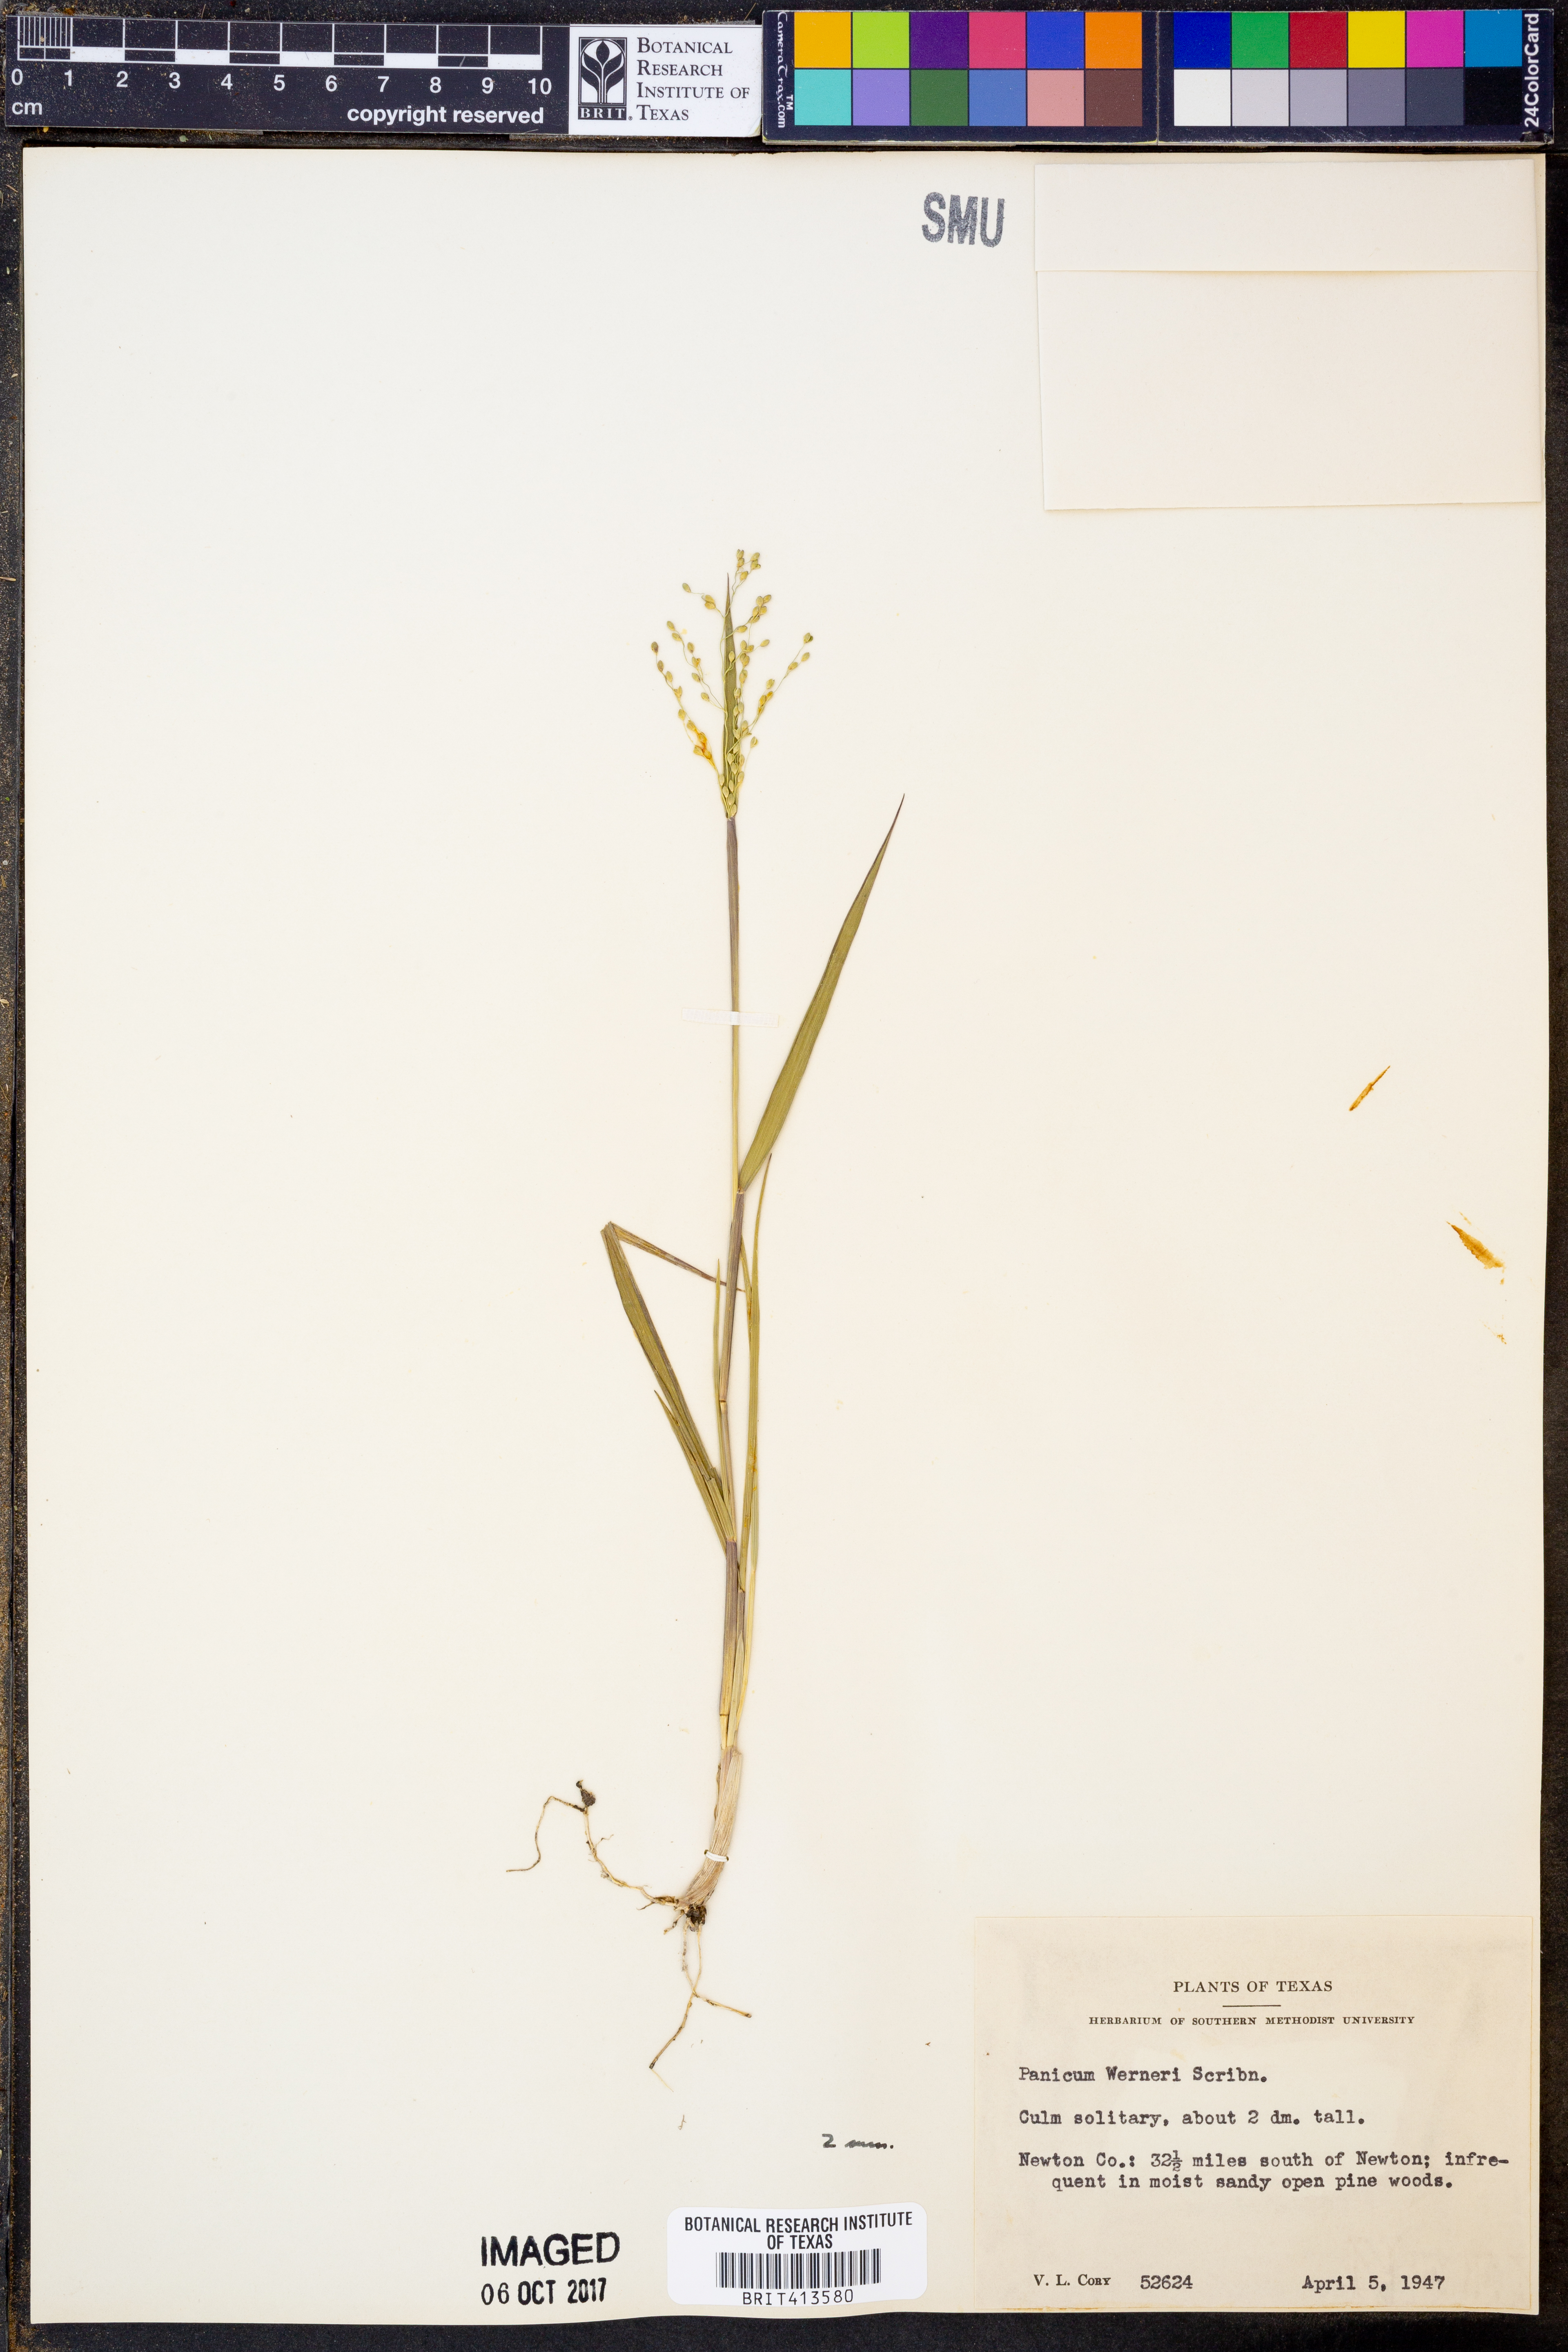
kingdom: Plantae
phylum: Tracheophyta
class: Liliopsida
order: Poales
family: Poaceae
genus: Dichanthelium
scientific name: Dichanthelium linearifolium
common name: Linear-leaved panicgrass
